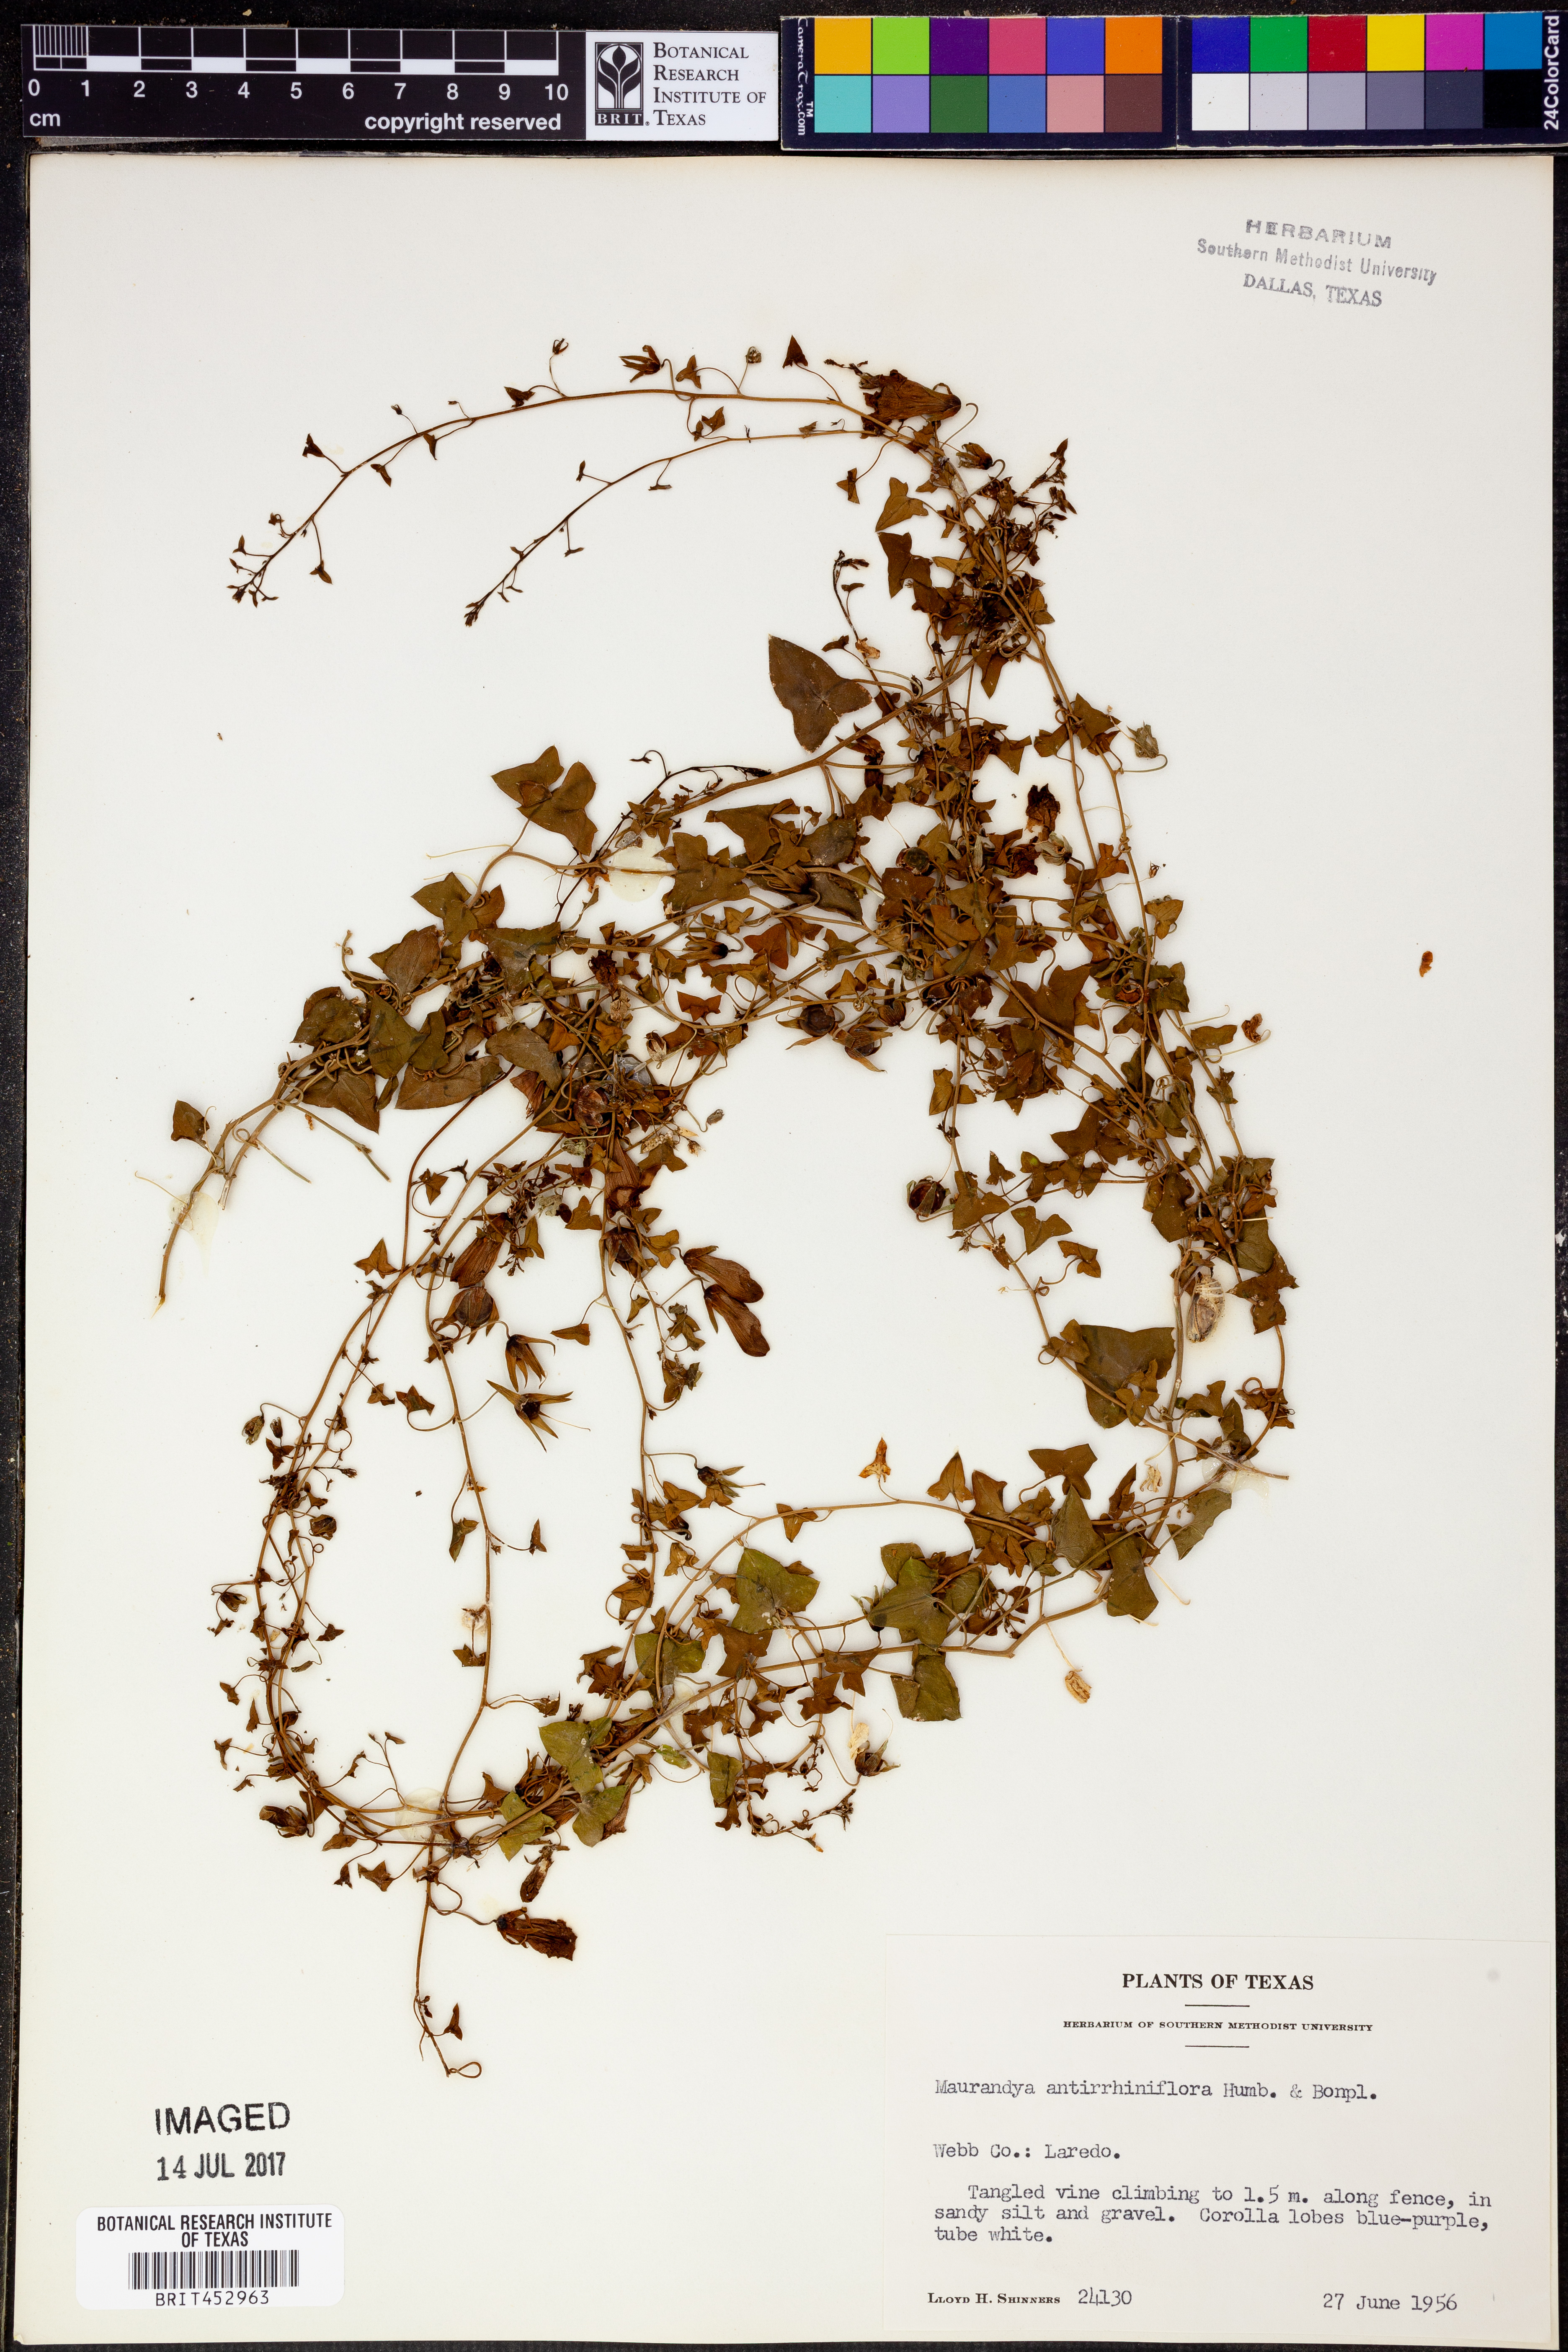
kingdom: Plantae
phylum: Tracheophyta
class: Magnoliopsida
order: Lamiales
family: Plantaginaceae
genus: Maurandella
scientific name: Maurandella antirrhiniflora
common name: Violet twining-snapdragon
